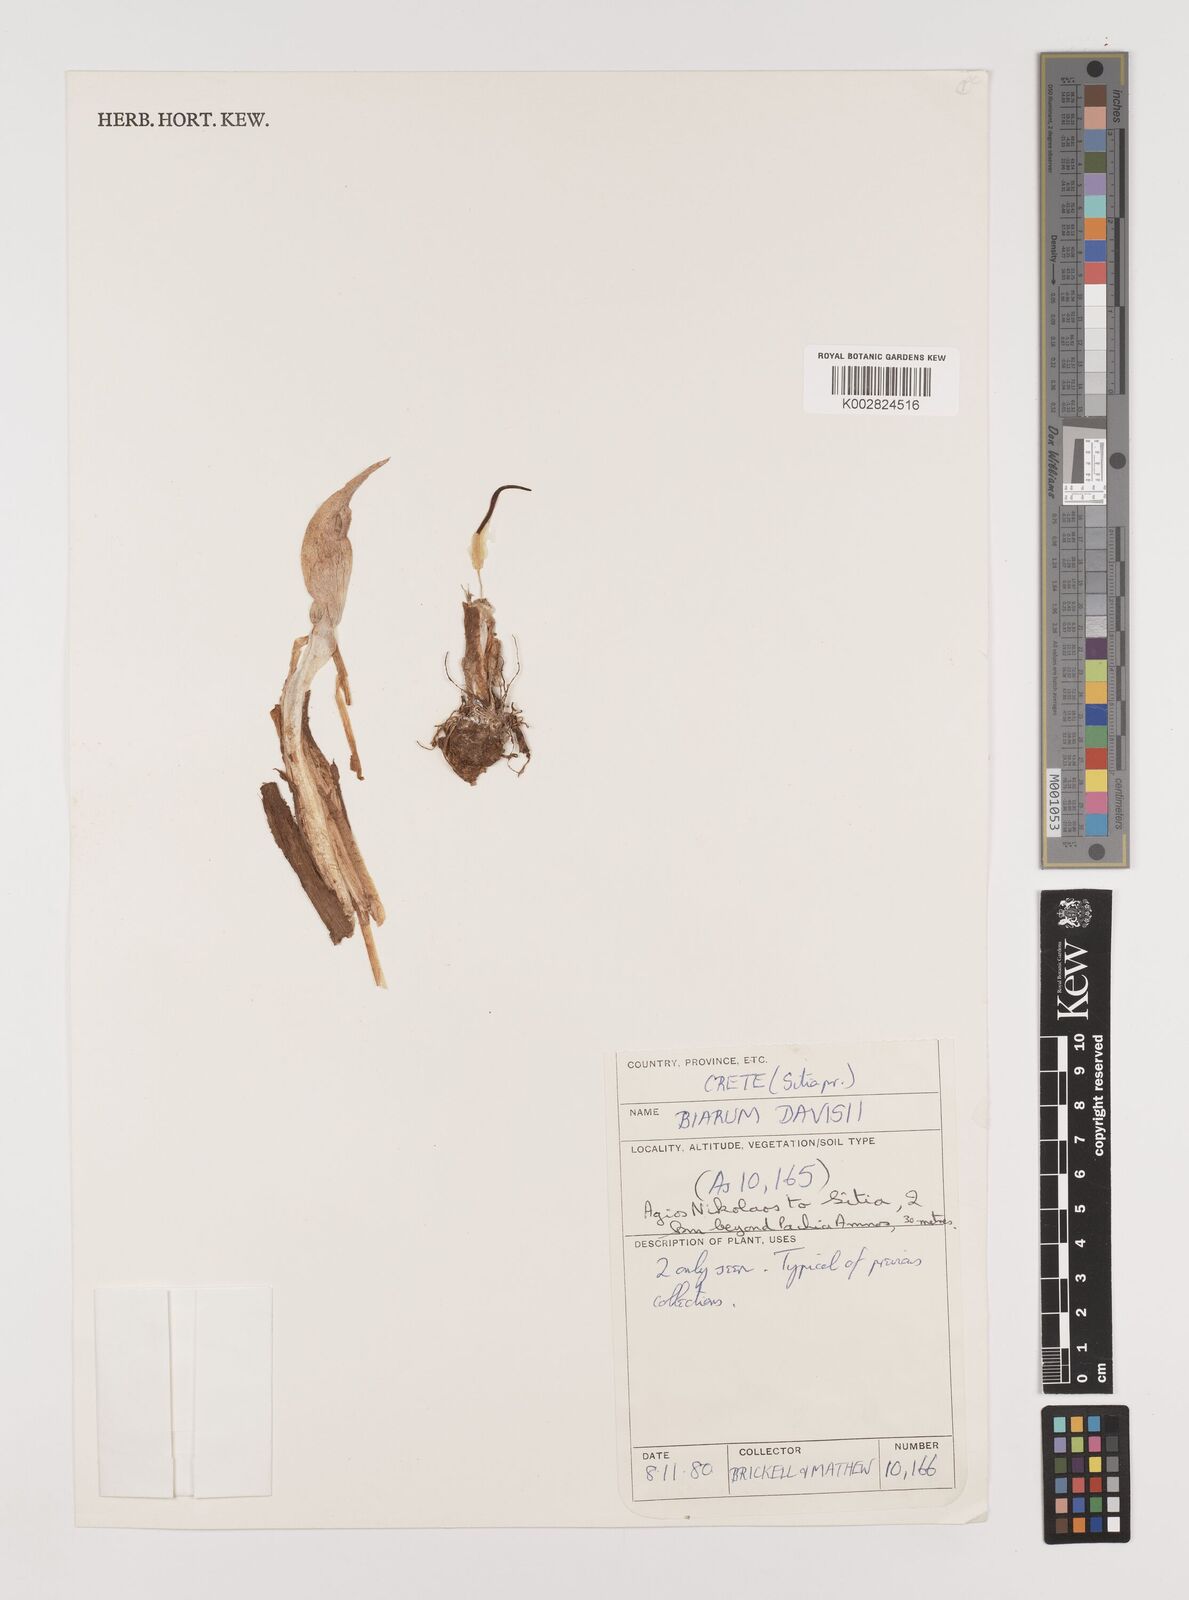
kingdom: Plantae
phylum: Tracheophyta
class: Liliopsida
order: Alismatales
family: Araceae
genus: Biarum
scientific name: Biarum davisii
